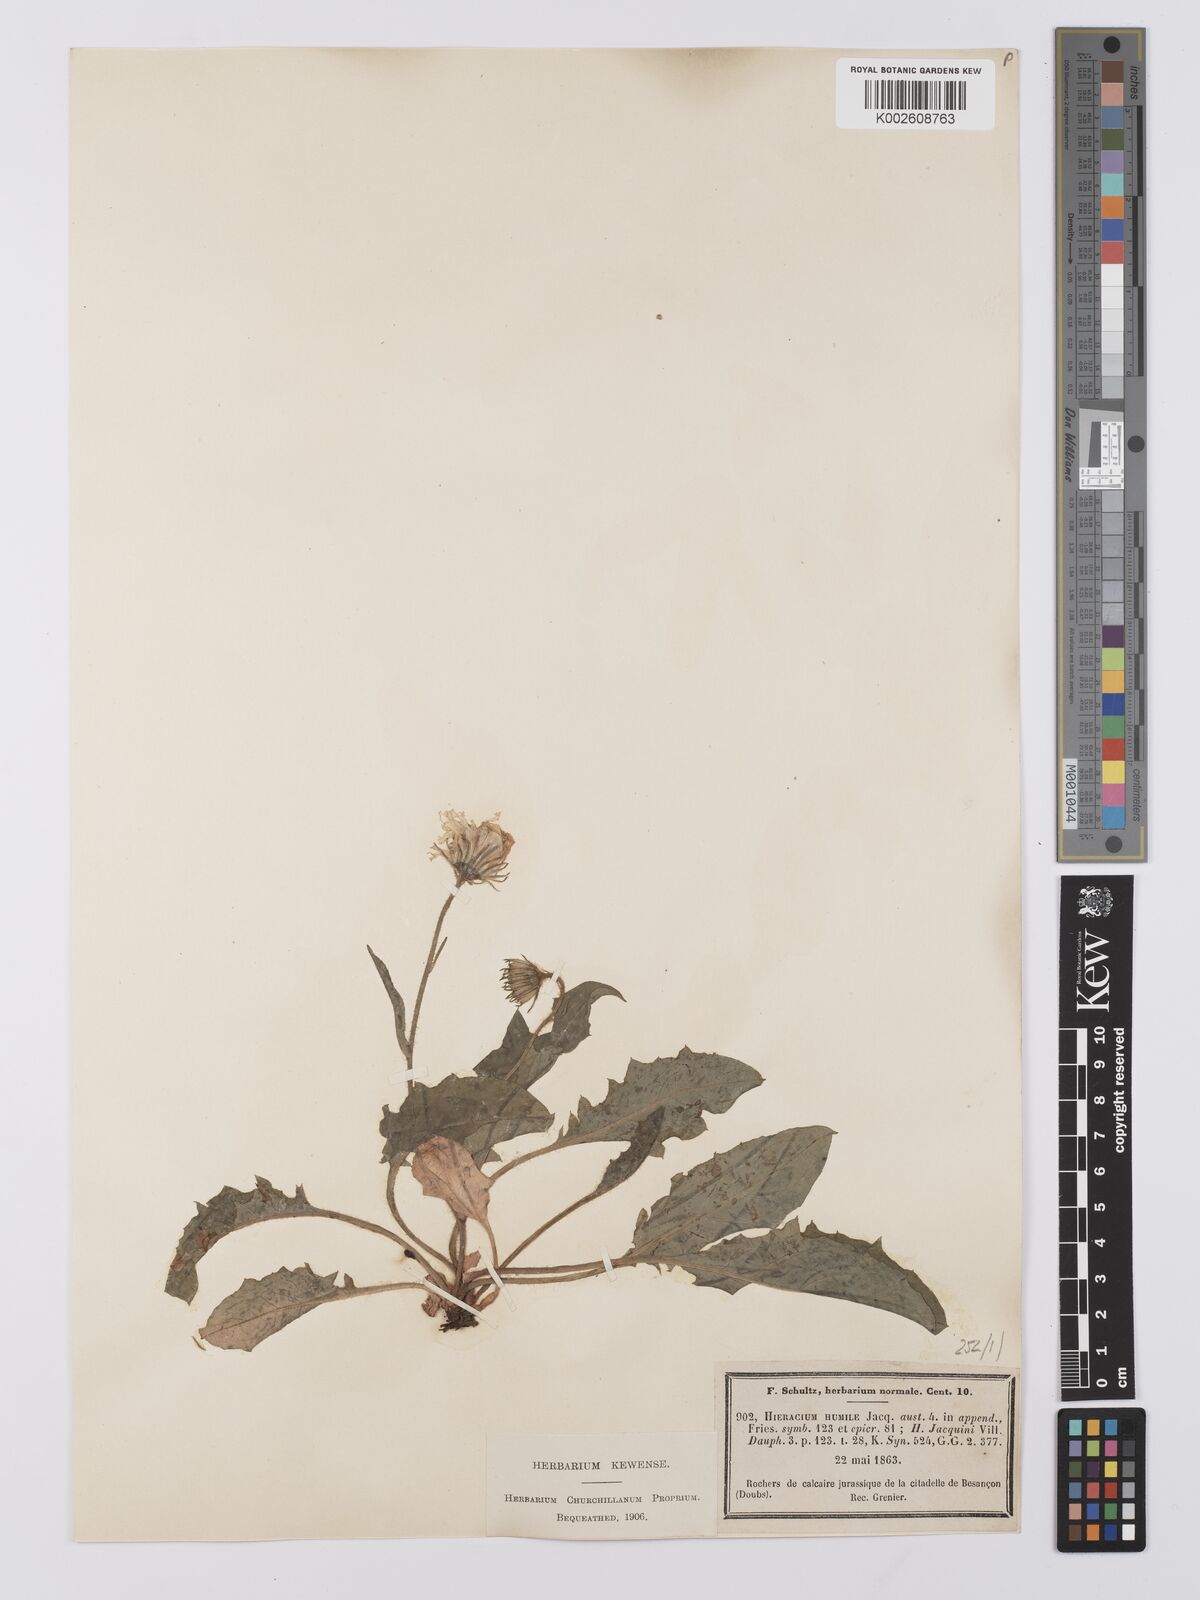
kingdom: Plantae
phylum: Tracheophyta
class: Magnoliopsida
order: Asterales
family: Asteraceae
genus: Hieracium
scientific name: Hieracium humile
